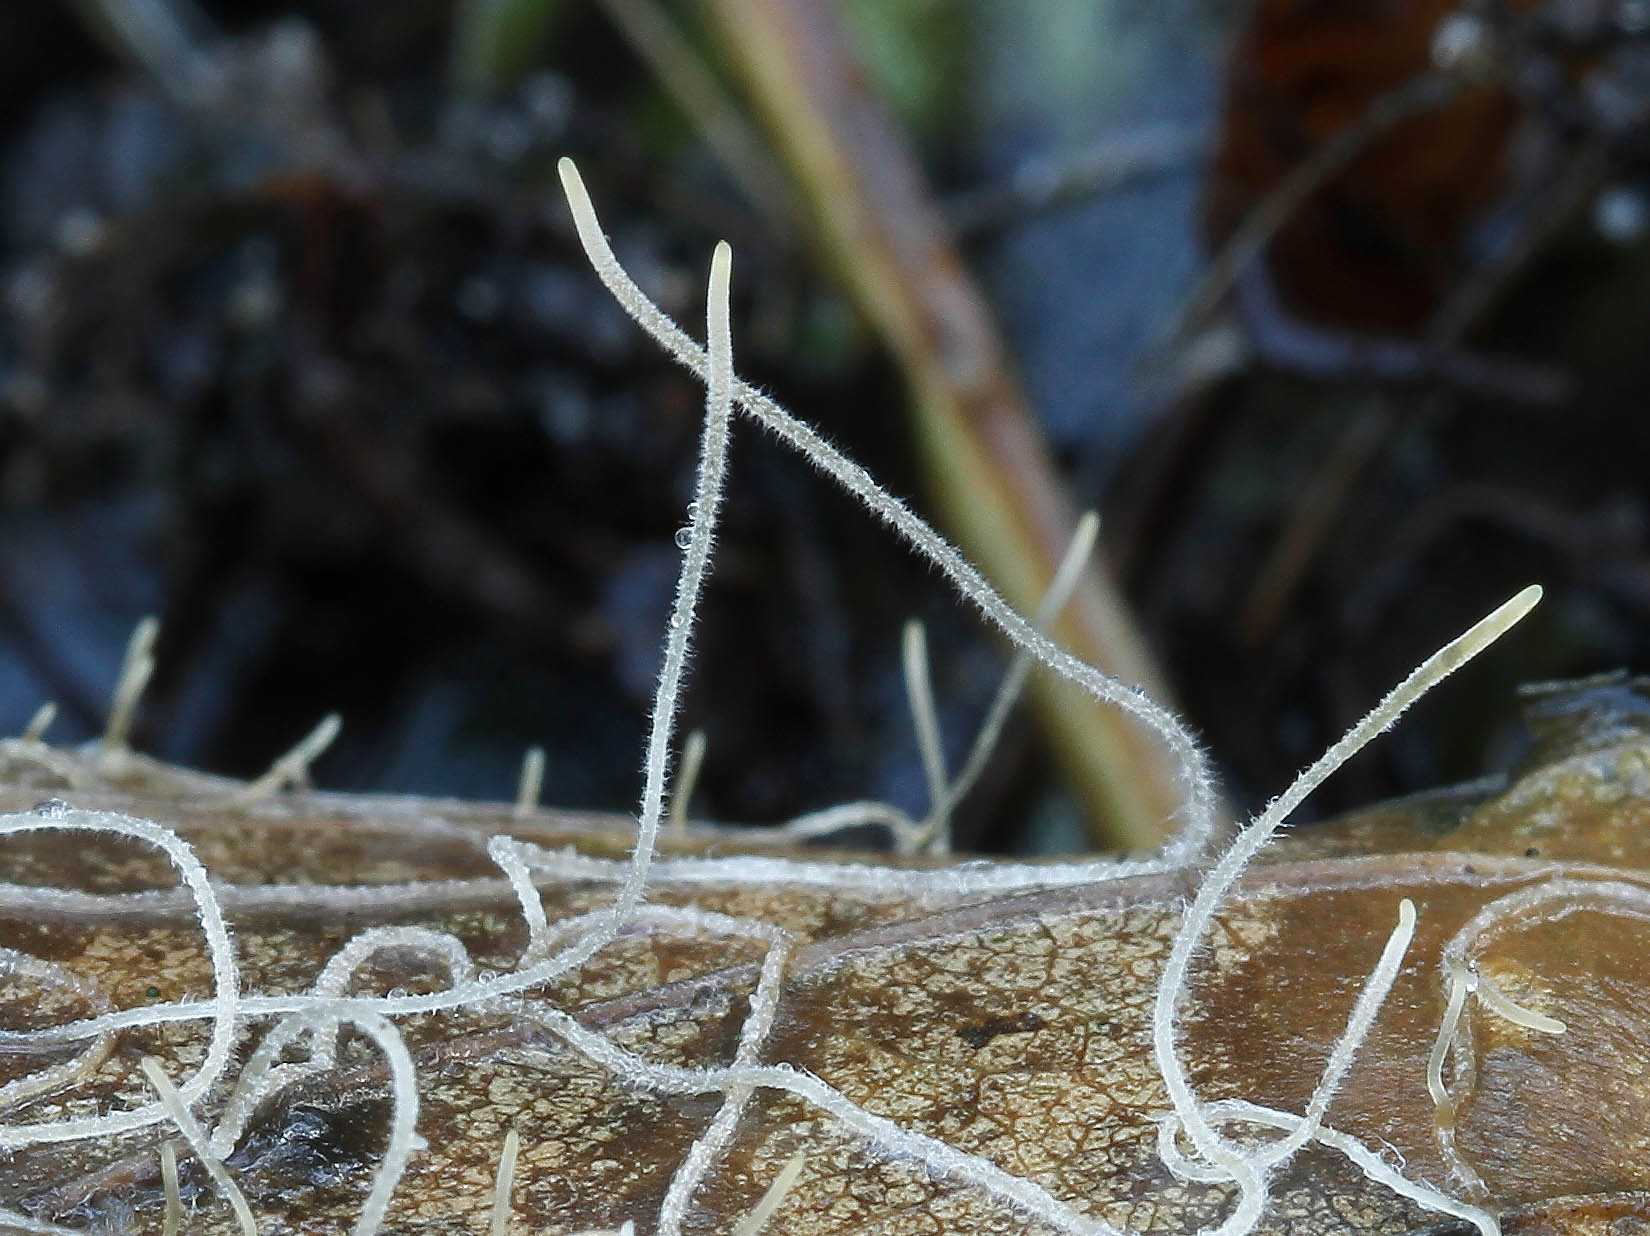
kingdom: Fungi
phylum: Basidiomycota
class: Agaricomycetes
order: Agaricales
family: Typhulaceae
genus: Typhula
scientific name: Typhula juncea
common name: trådagtig rørkølle
